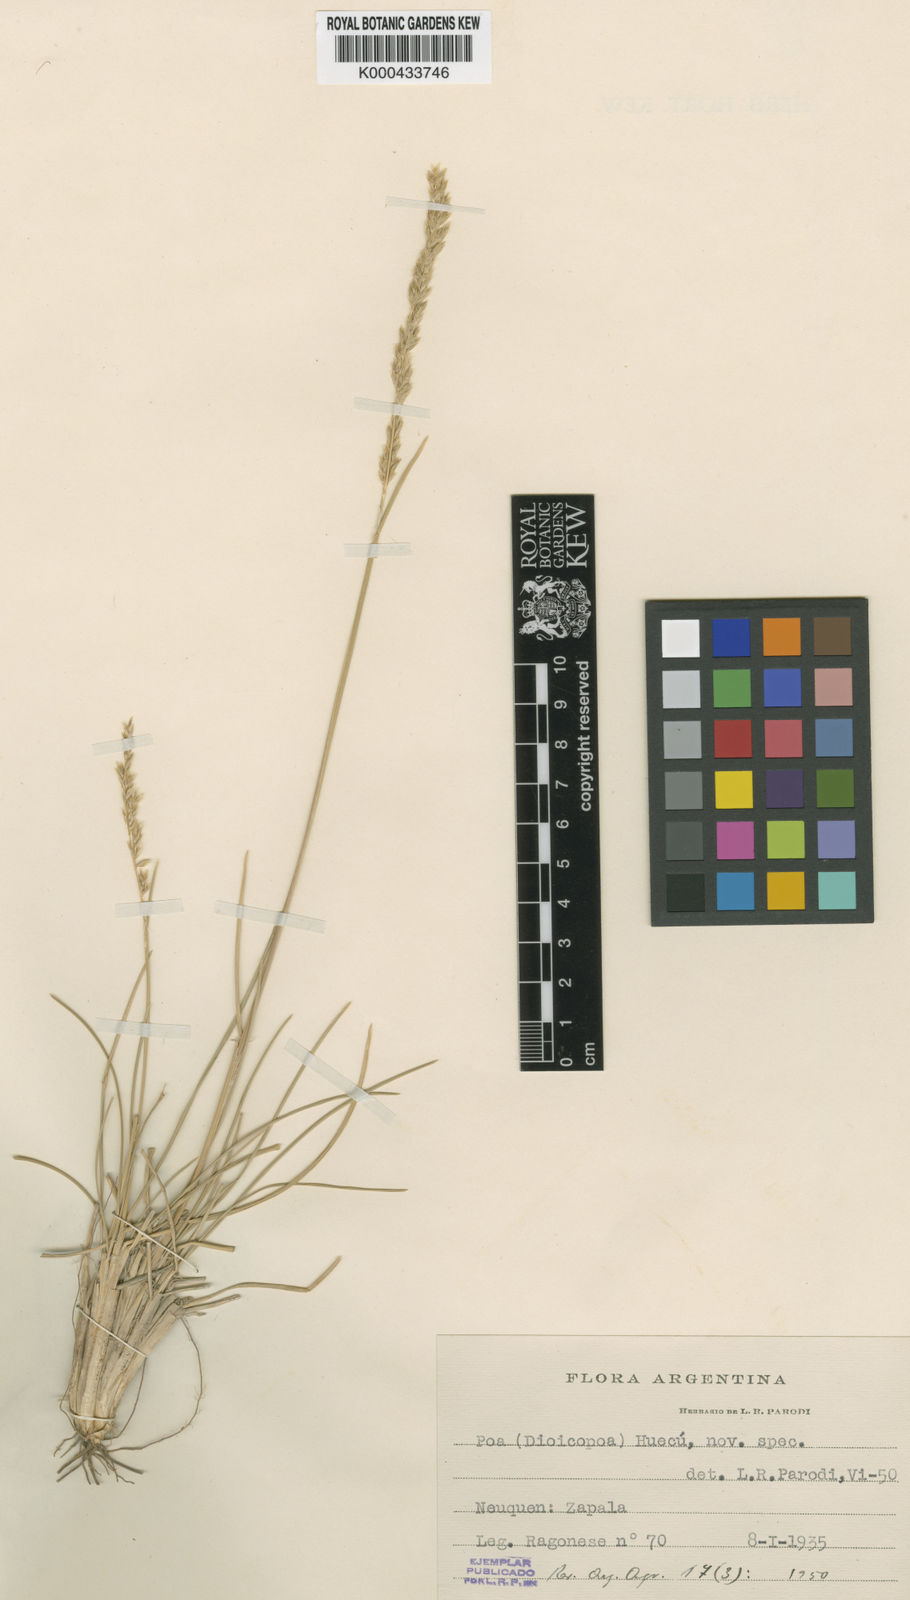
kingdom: Plantae
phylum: Tracheophyta
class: Liliopsida
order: Poales
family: Poaceae
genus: Poa
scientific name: Poa huecu
